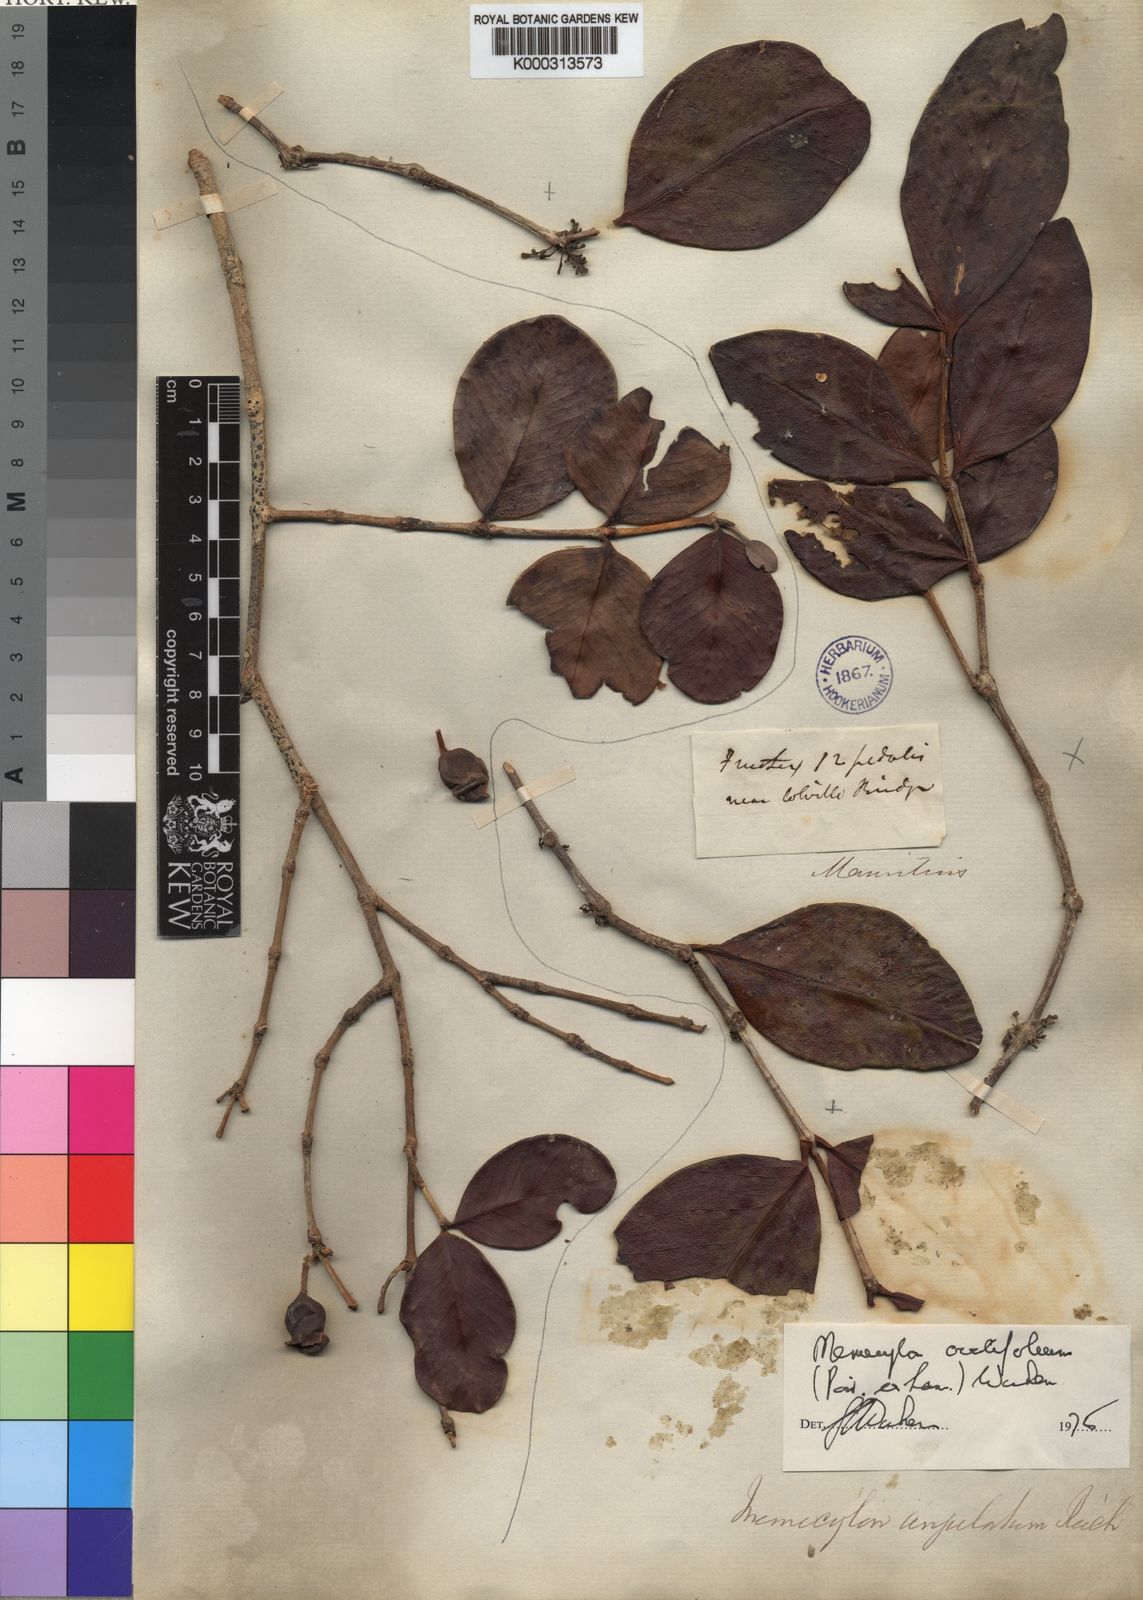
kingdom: Plantae
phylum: Tracheophyta
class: Magnoliopsida
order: Myrtales
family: Melastomataceae
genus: Memecylon
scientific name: Memecylon ovatifolium
